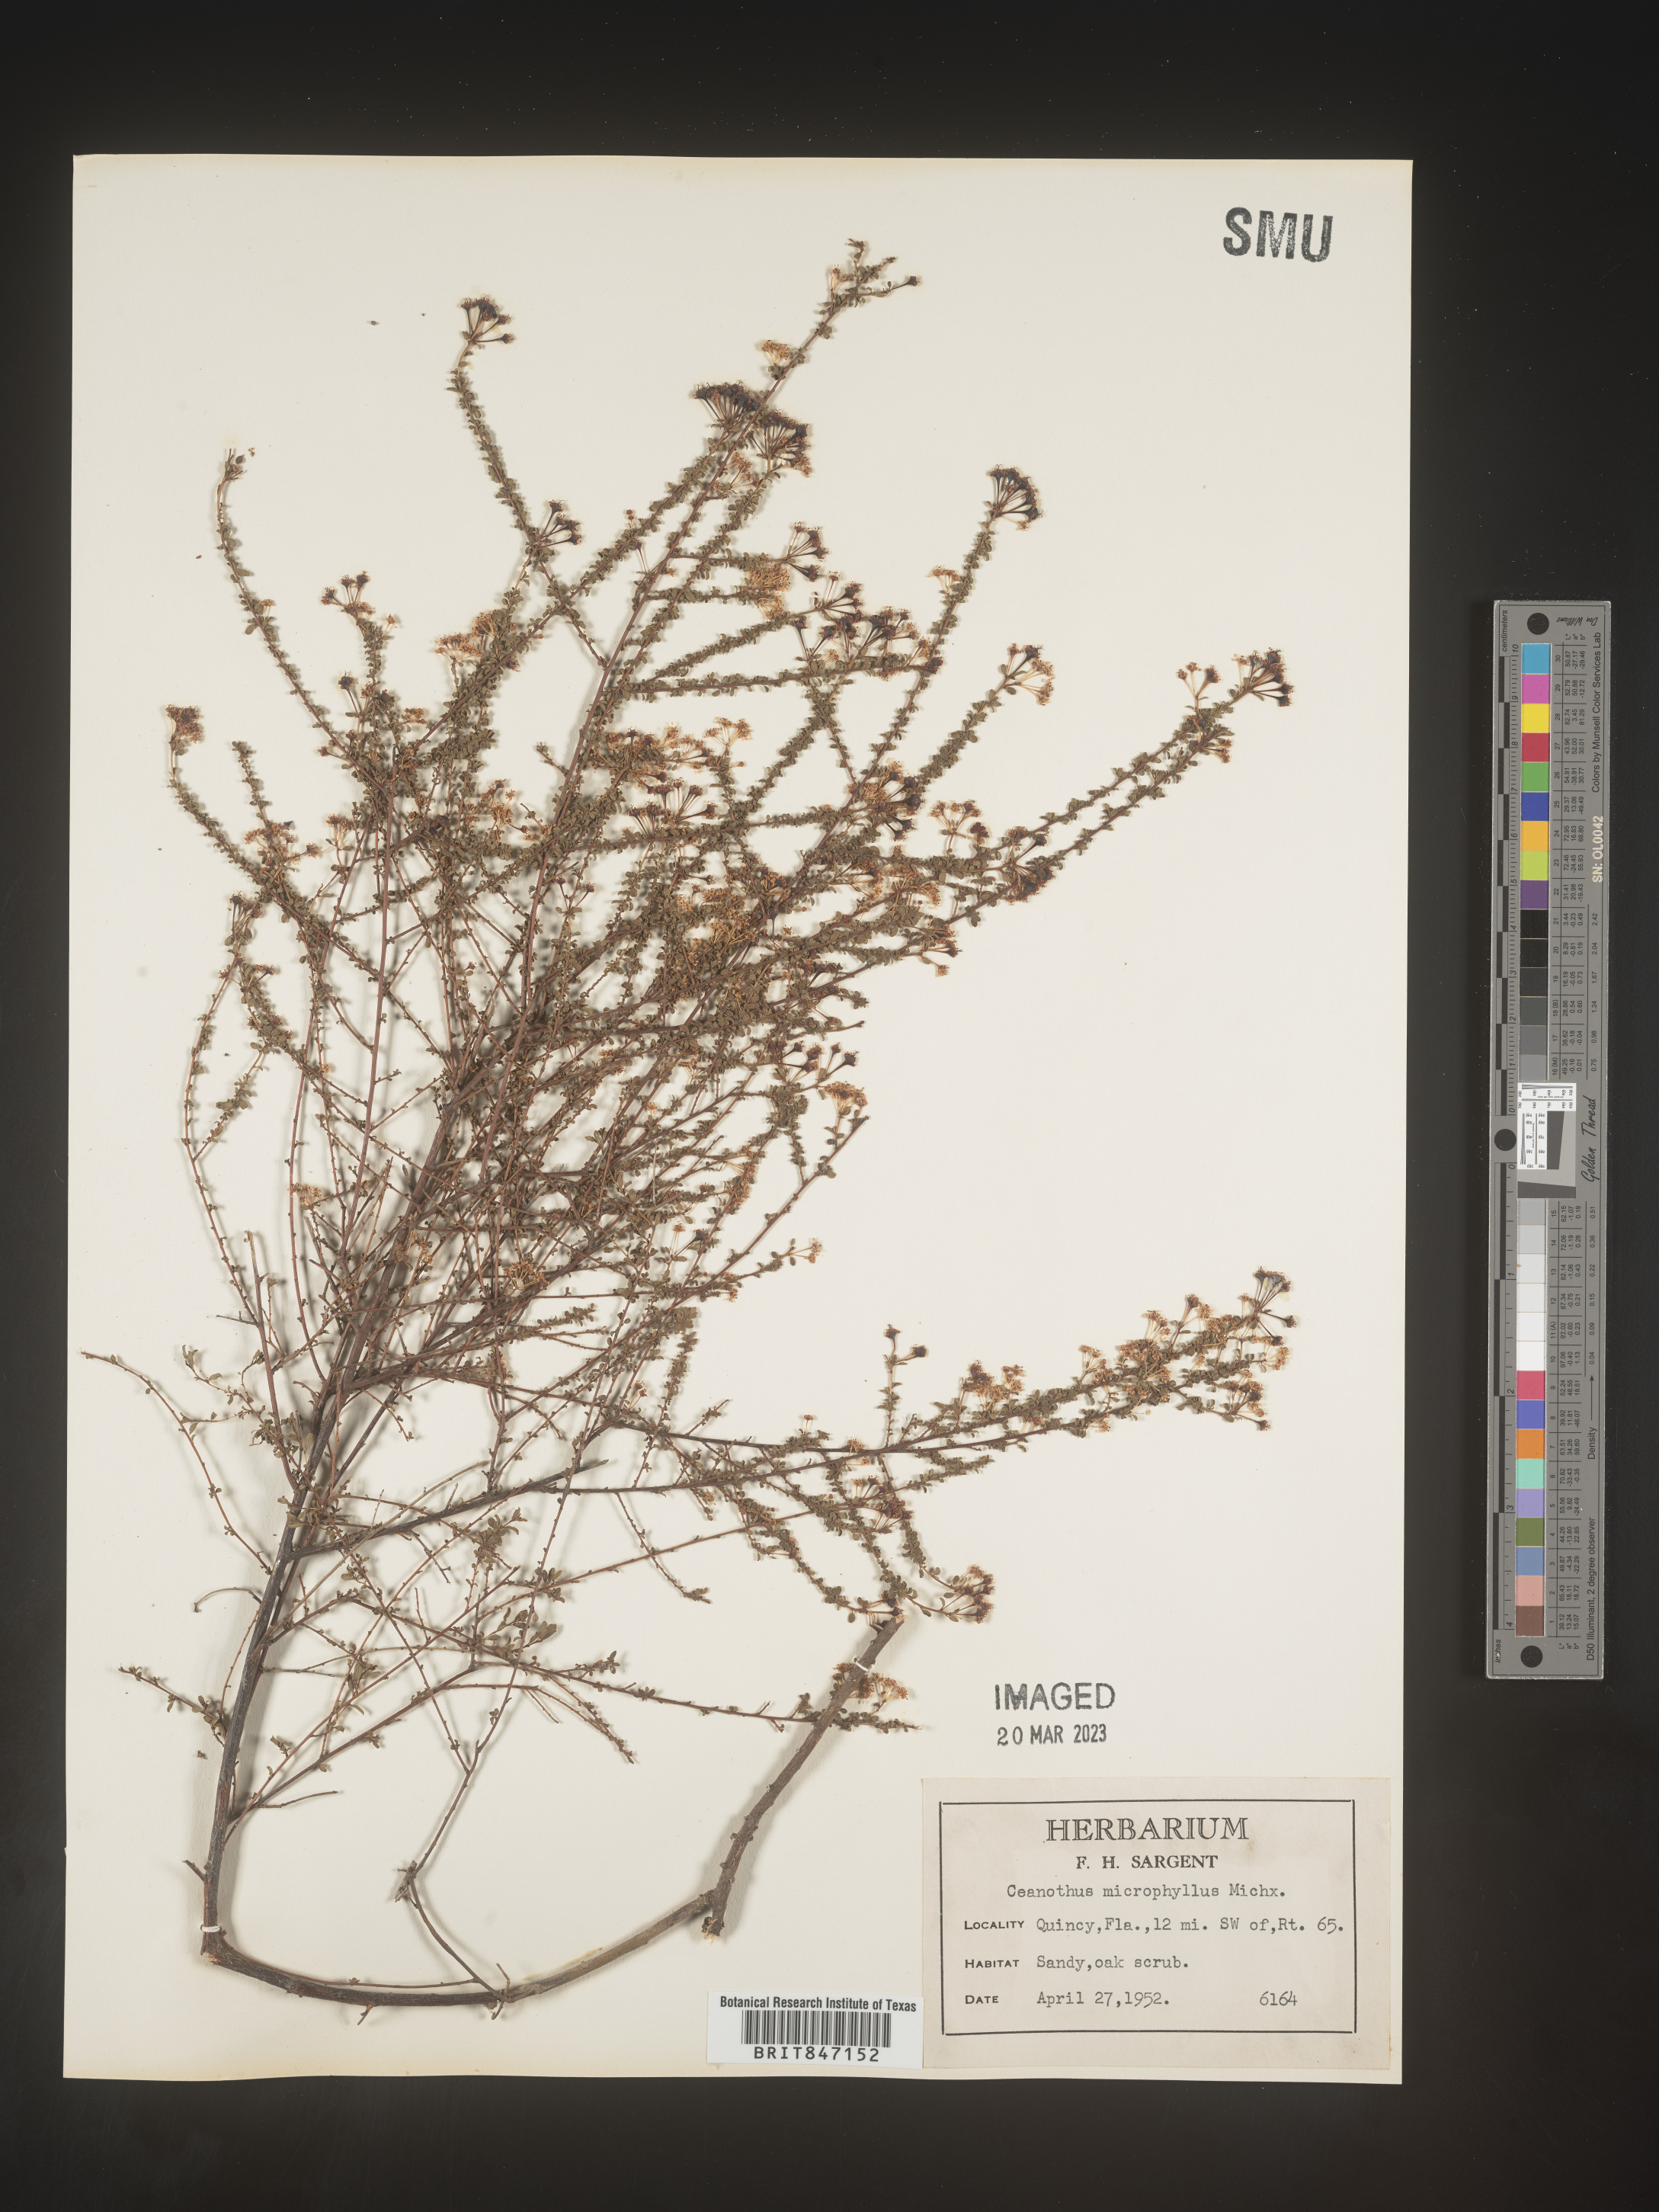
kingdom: Plantae
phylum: Tracheophyta
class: Magnoliopsida
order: Rosales
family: Rhamnaceae
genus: Ceanothus
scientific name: Ceanothus
